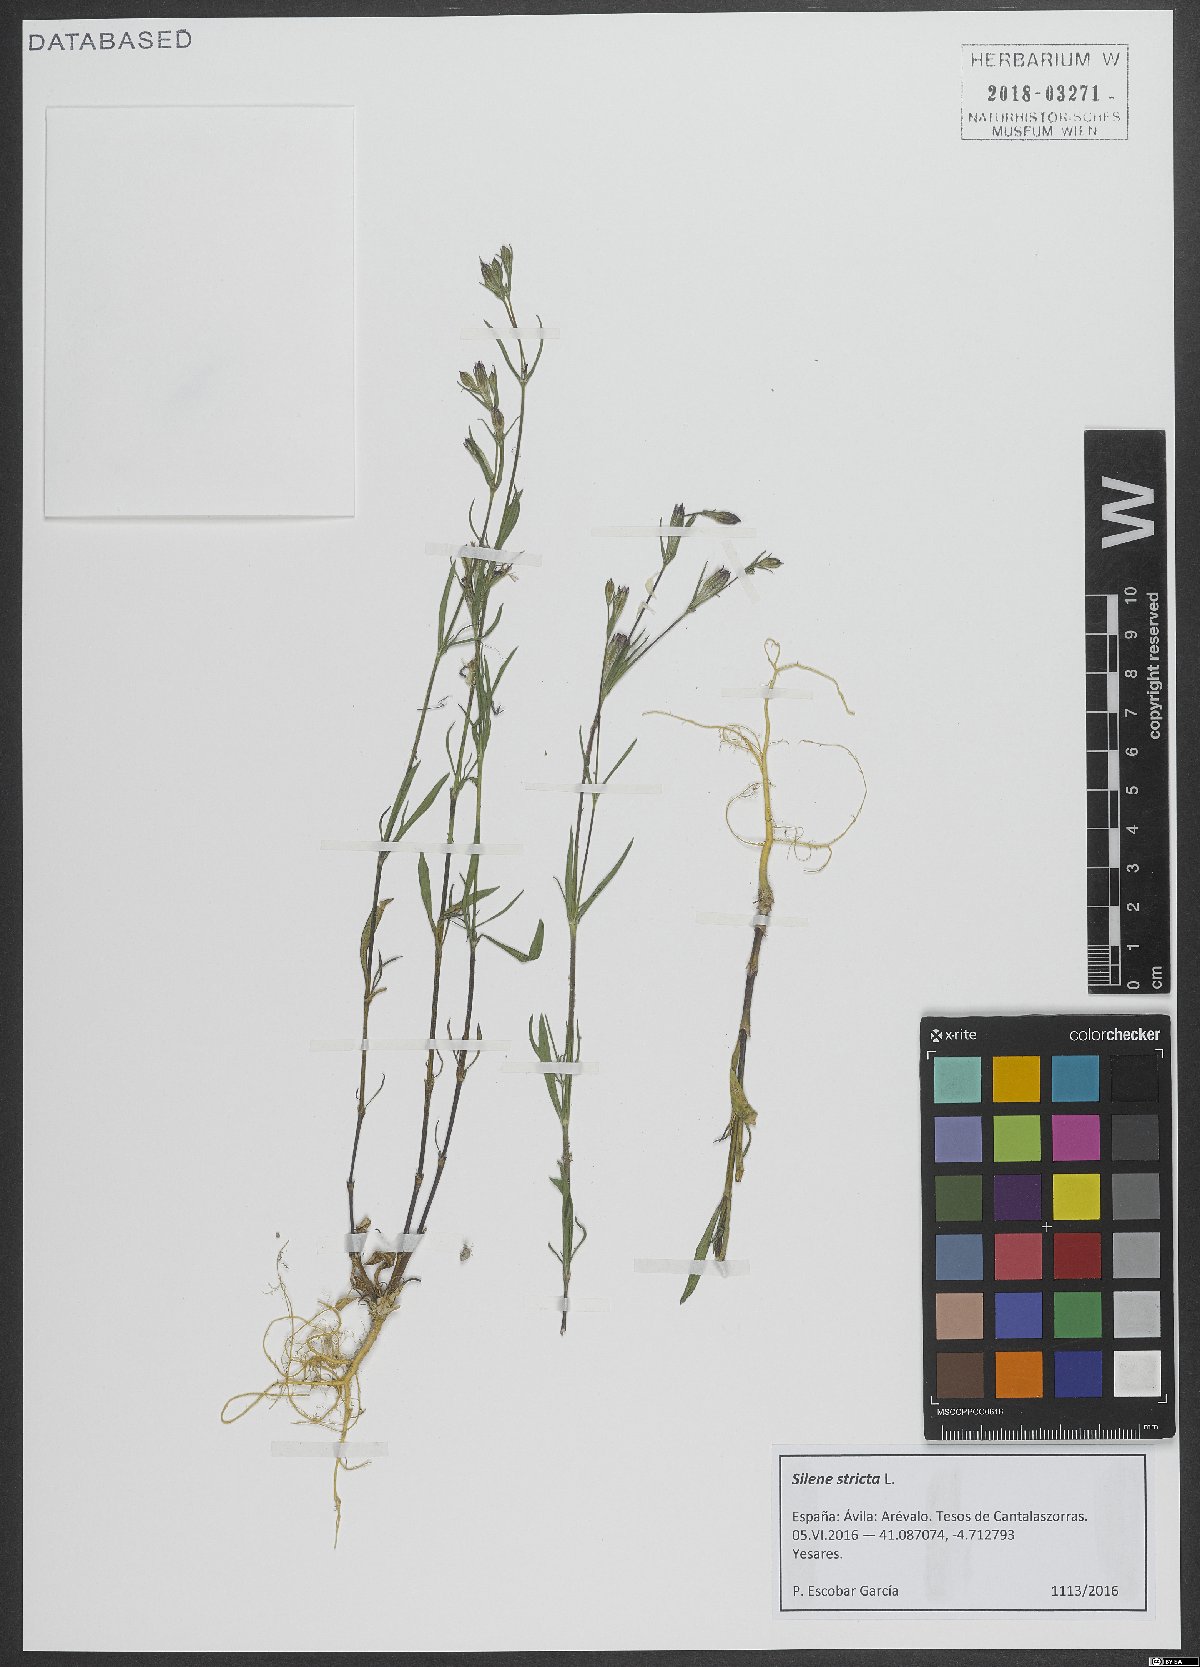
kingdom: Plantae
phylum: Tracheophyta
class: Magnoliopsida
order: Caryophyllales
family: Caryophyllaceae
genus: Silene
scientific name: Silene stricta
